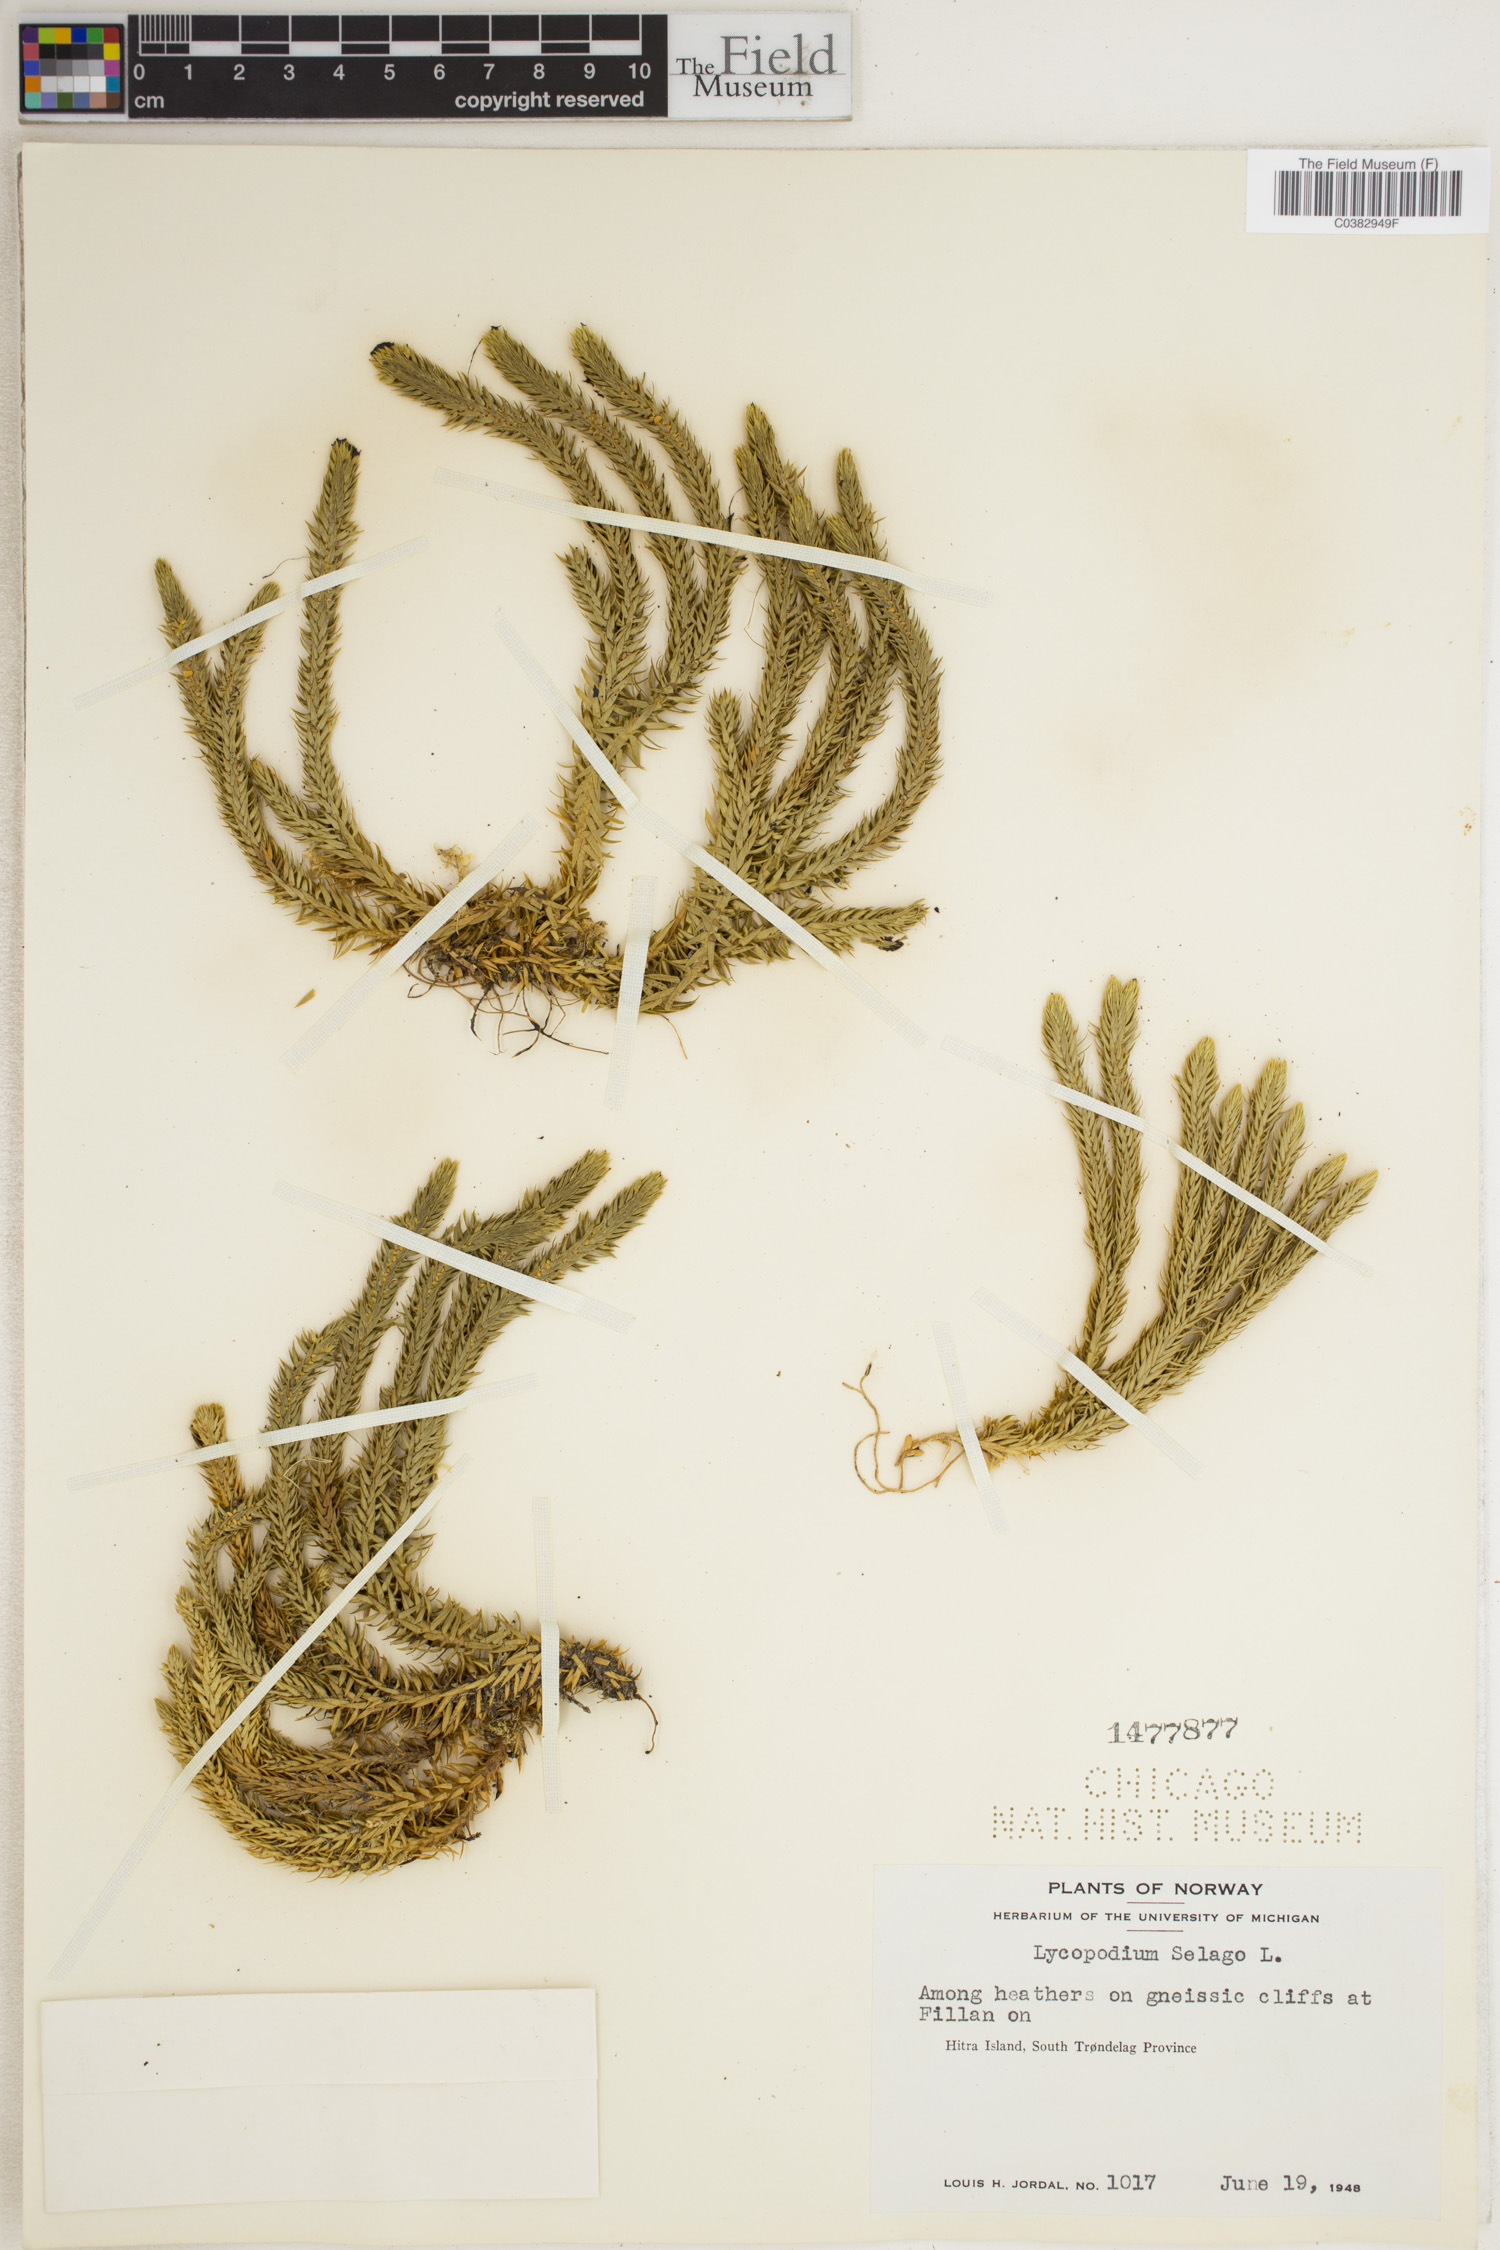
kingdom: Plantae
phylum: Tracheophyta
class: Lycopodiopsida
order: Lycopodiales
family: Lycopodiaceae
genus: Huperzia
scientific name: Huperzia selago
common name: Northern firmoss
